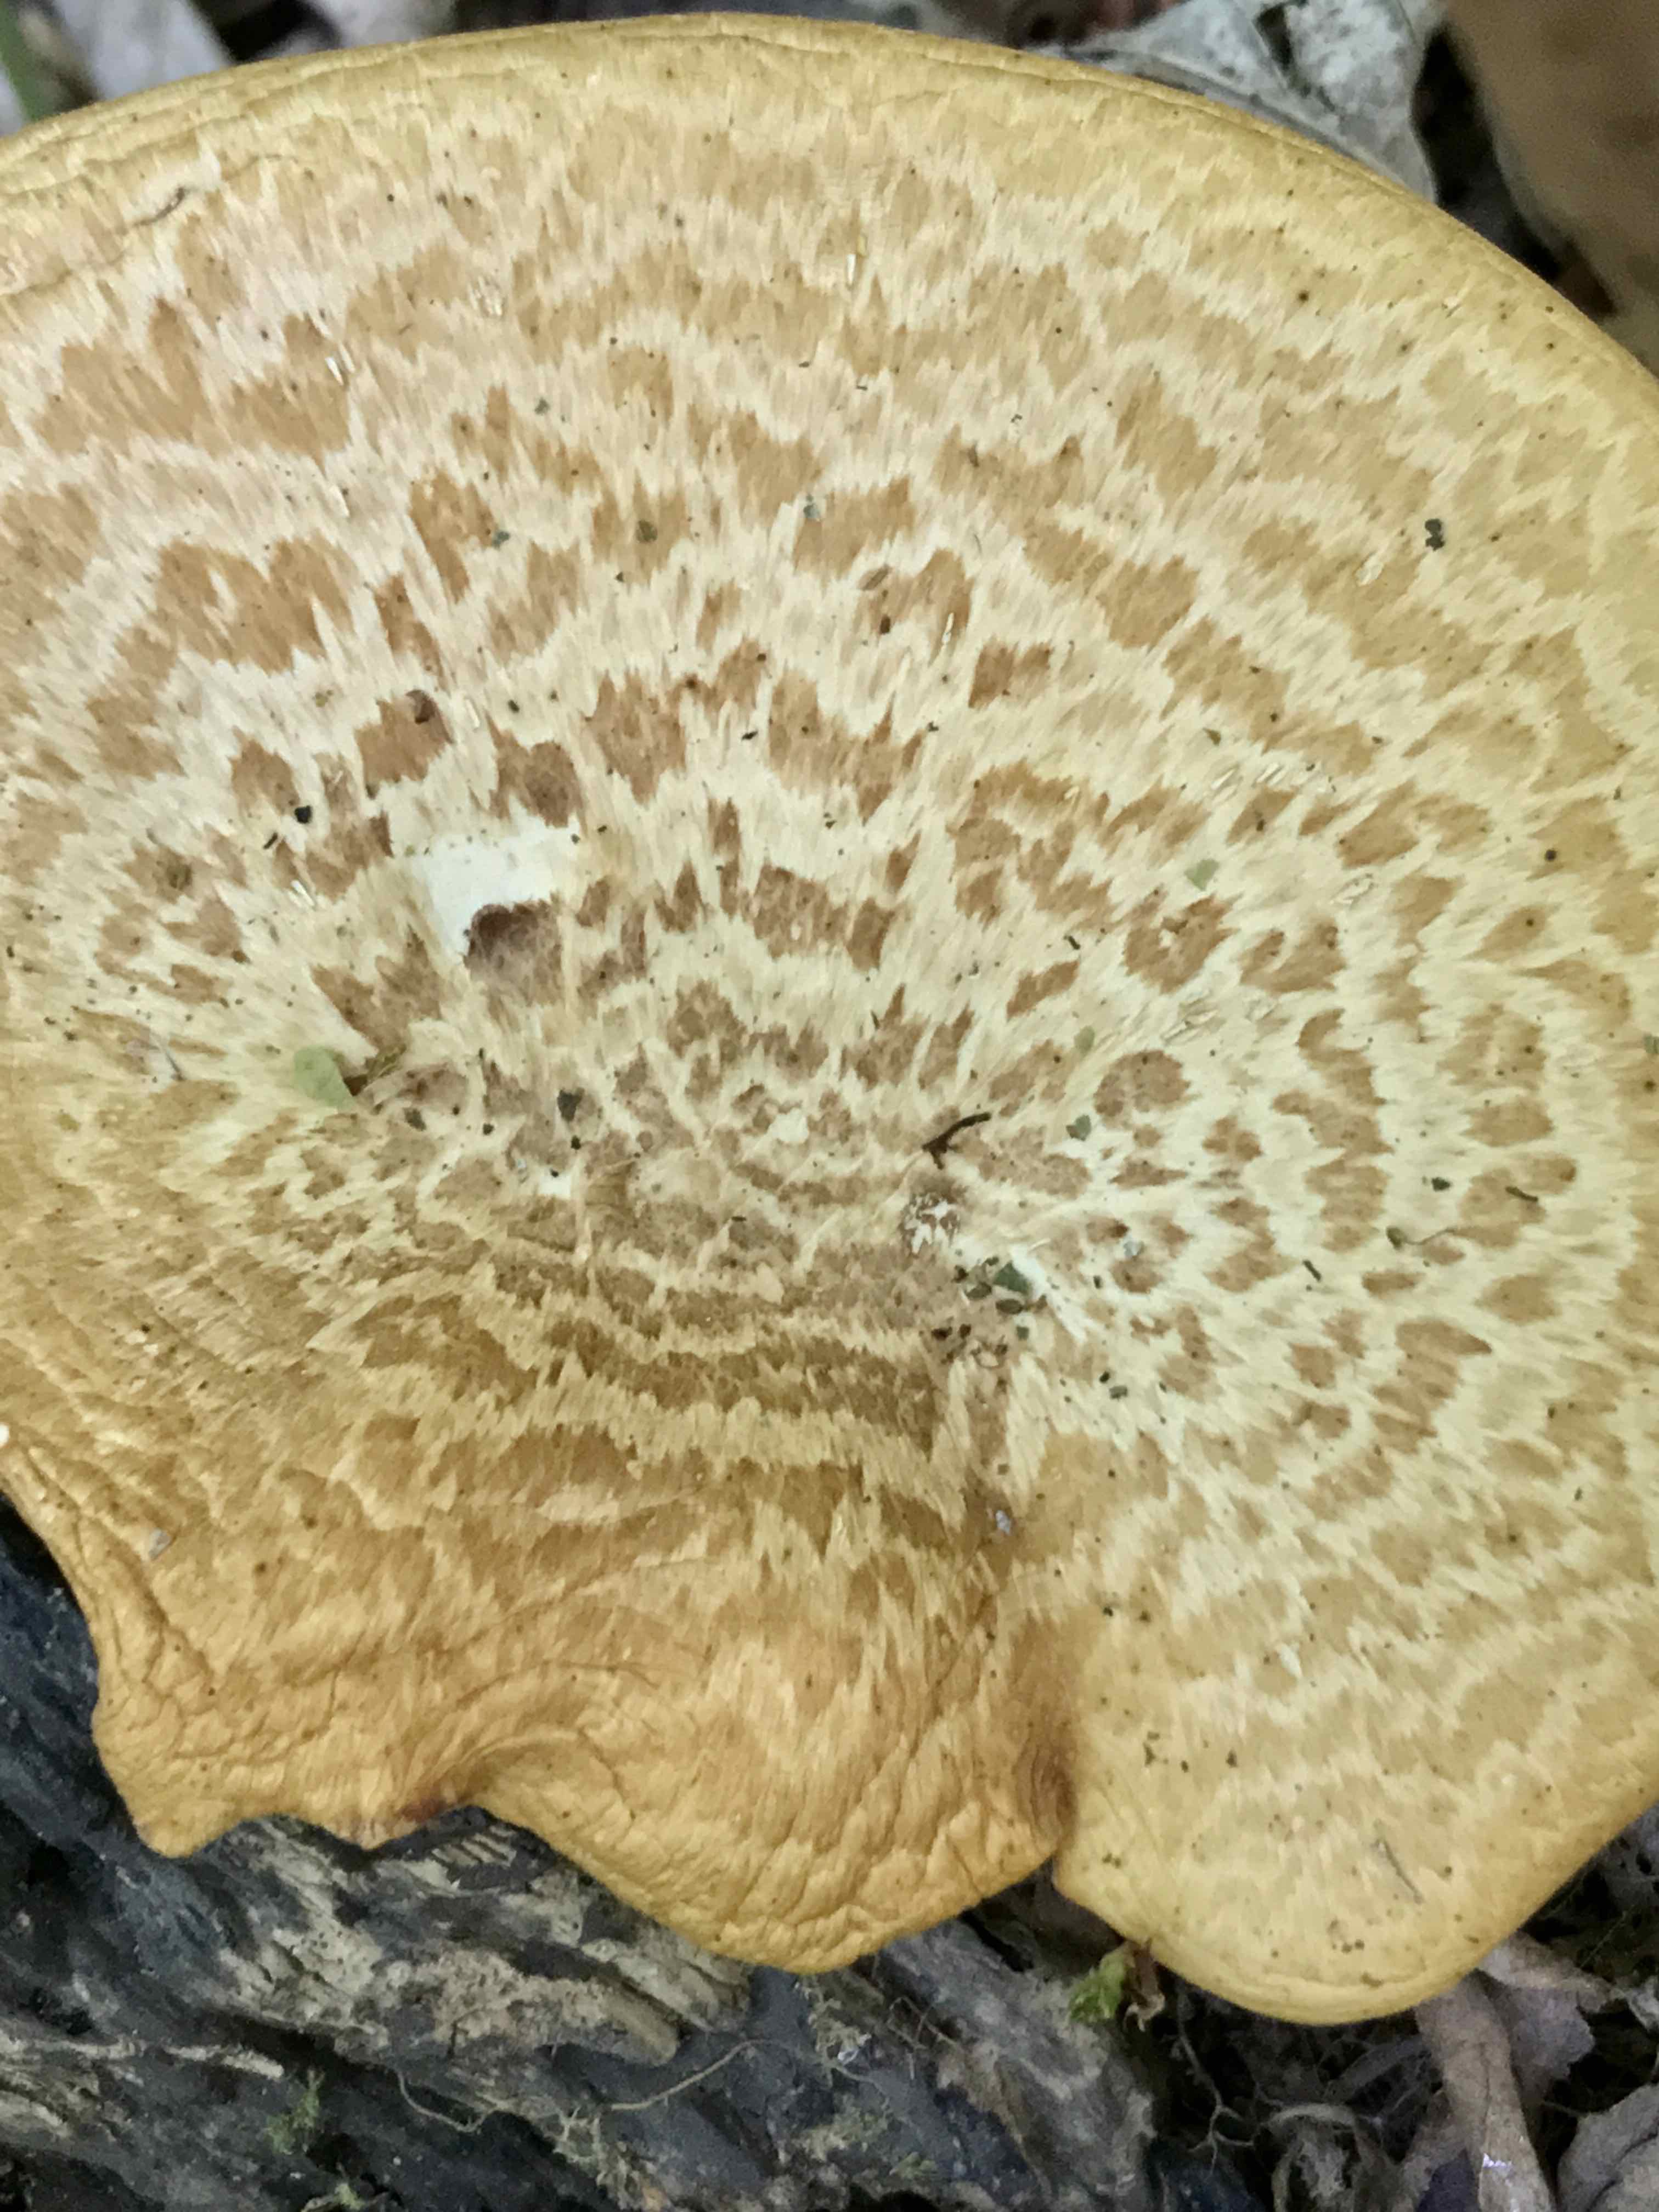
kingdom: Fungi
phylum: Basidiomycota
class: Agaricomycetes
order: Polyporales
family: Polyporaceae
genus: Cerioporus
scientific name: Cerioporus squamosus
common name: skællet stilkporesvamp
